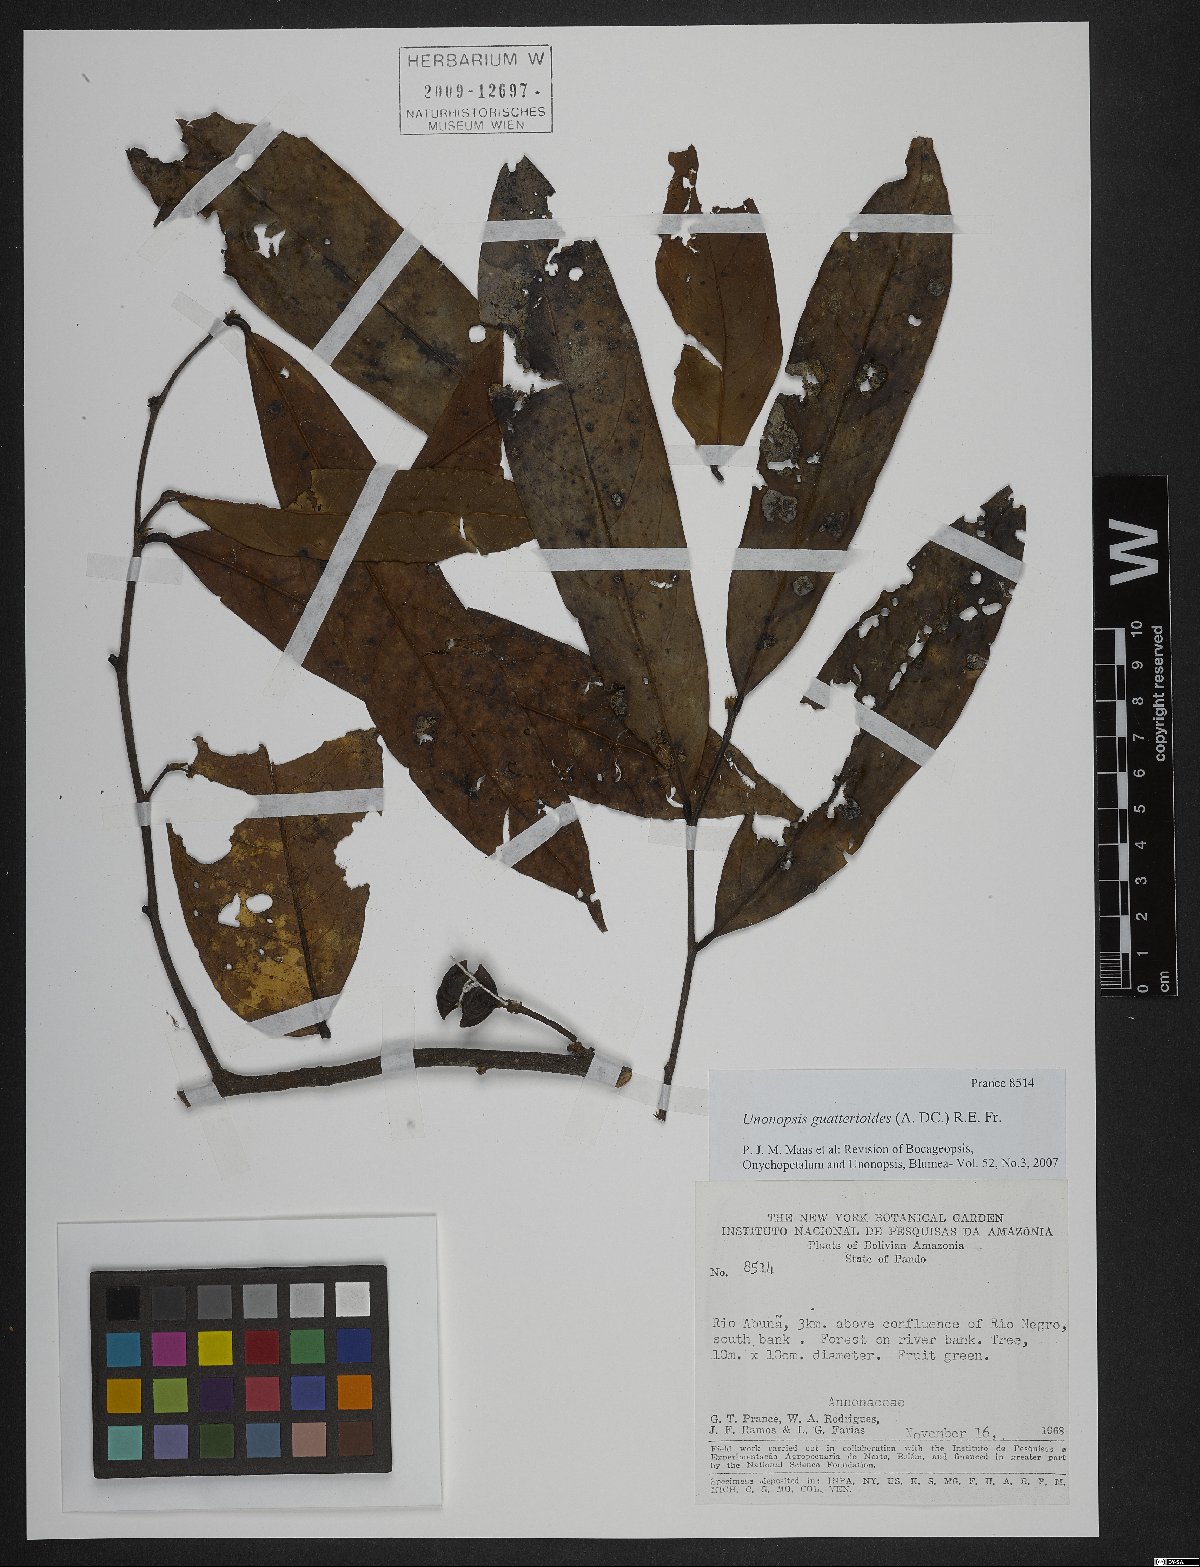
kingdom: Plantae
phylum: Tracheophyta
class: Magnoliopsida
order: Magnoliales
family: Annonaceae
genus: Unonopsis
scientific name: Unonopsis guatterioides
